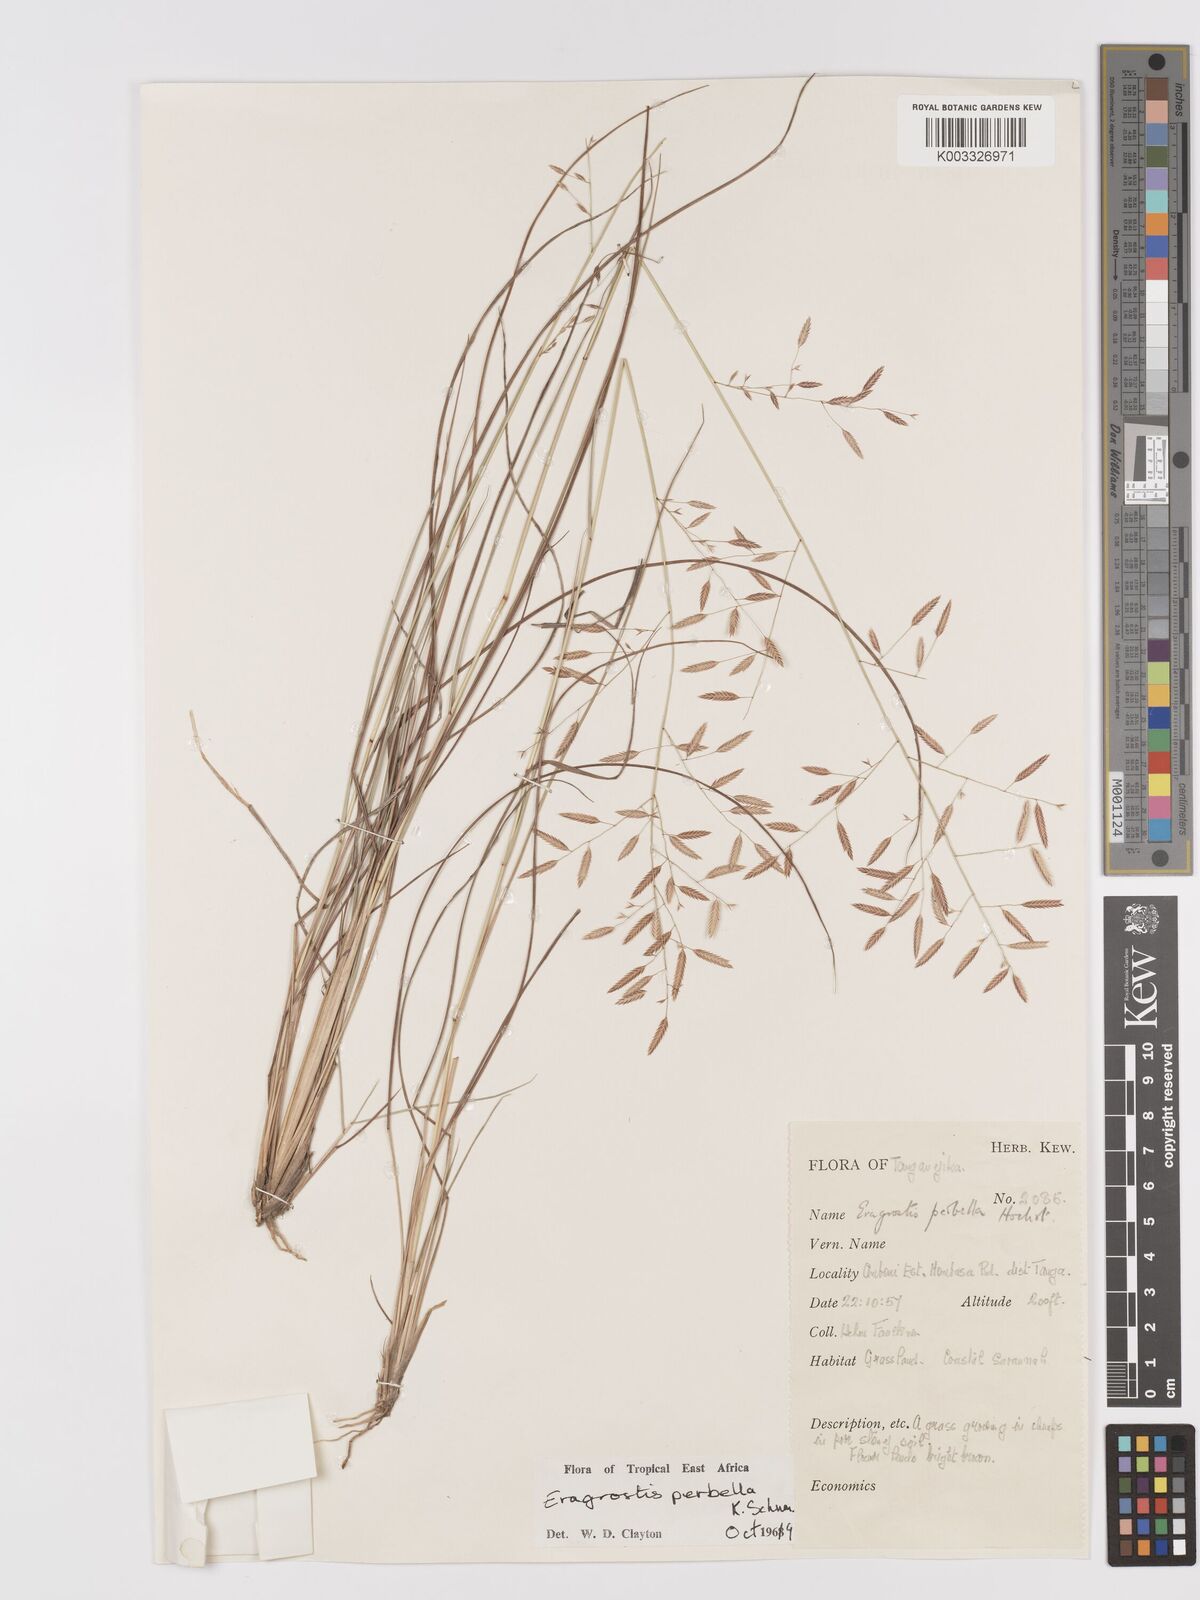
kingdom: Plantae
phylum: Tracheophyta
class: Liliopsida
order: Poales
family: Poaceae
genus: Eragrostis
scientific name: Eragrostis perbella
